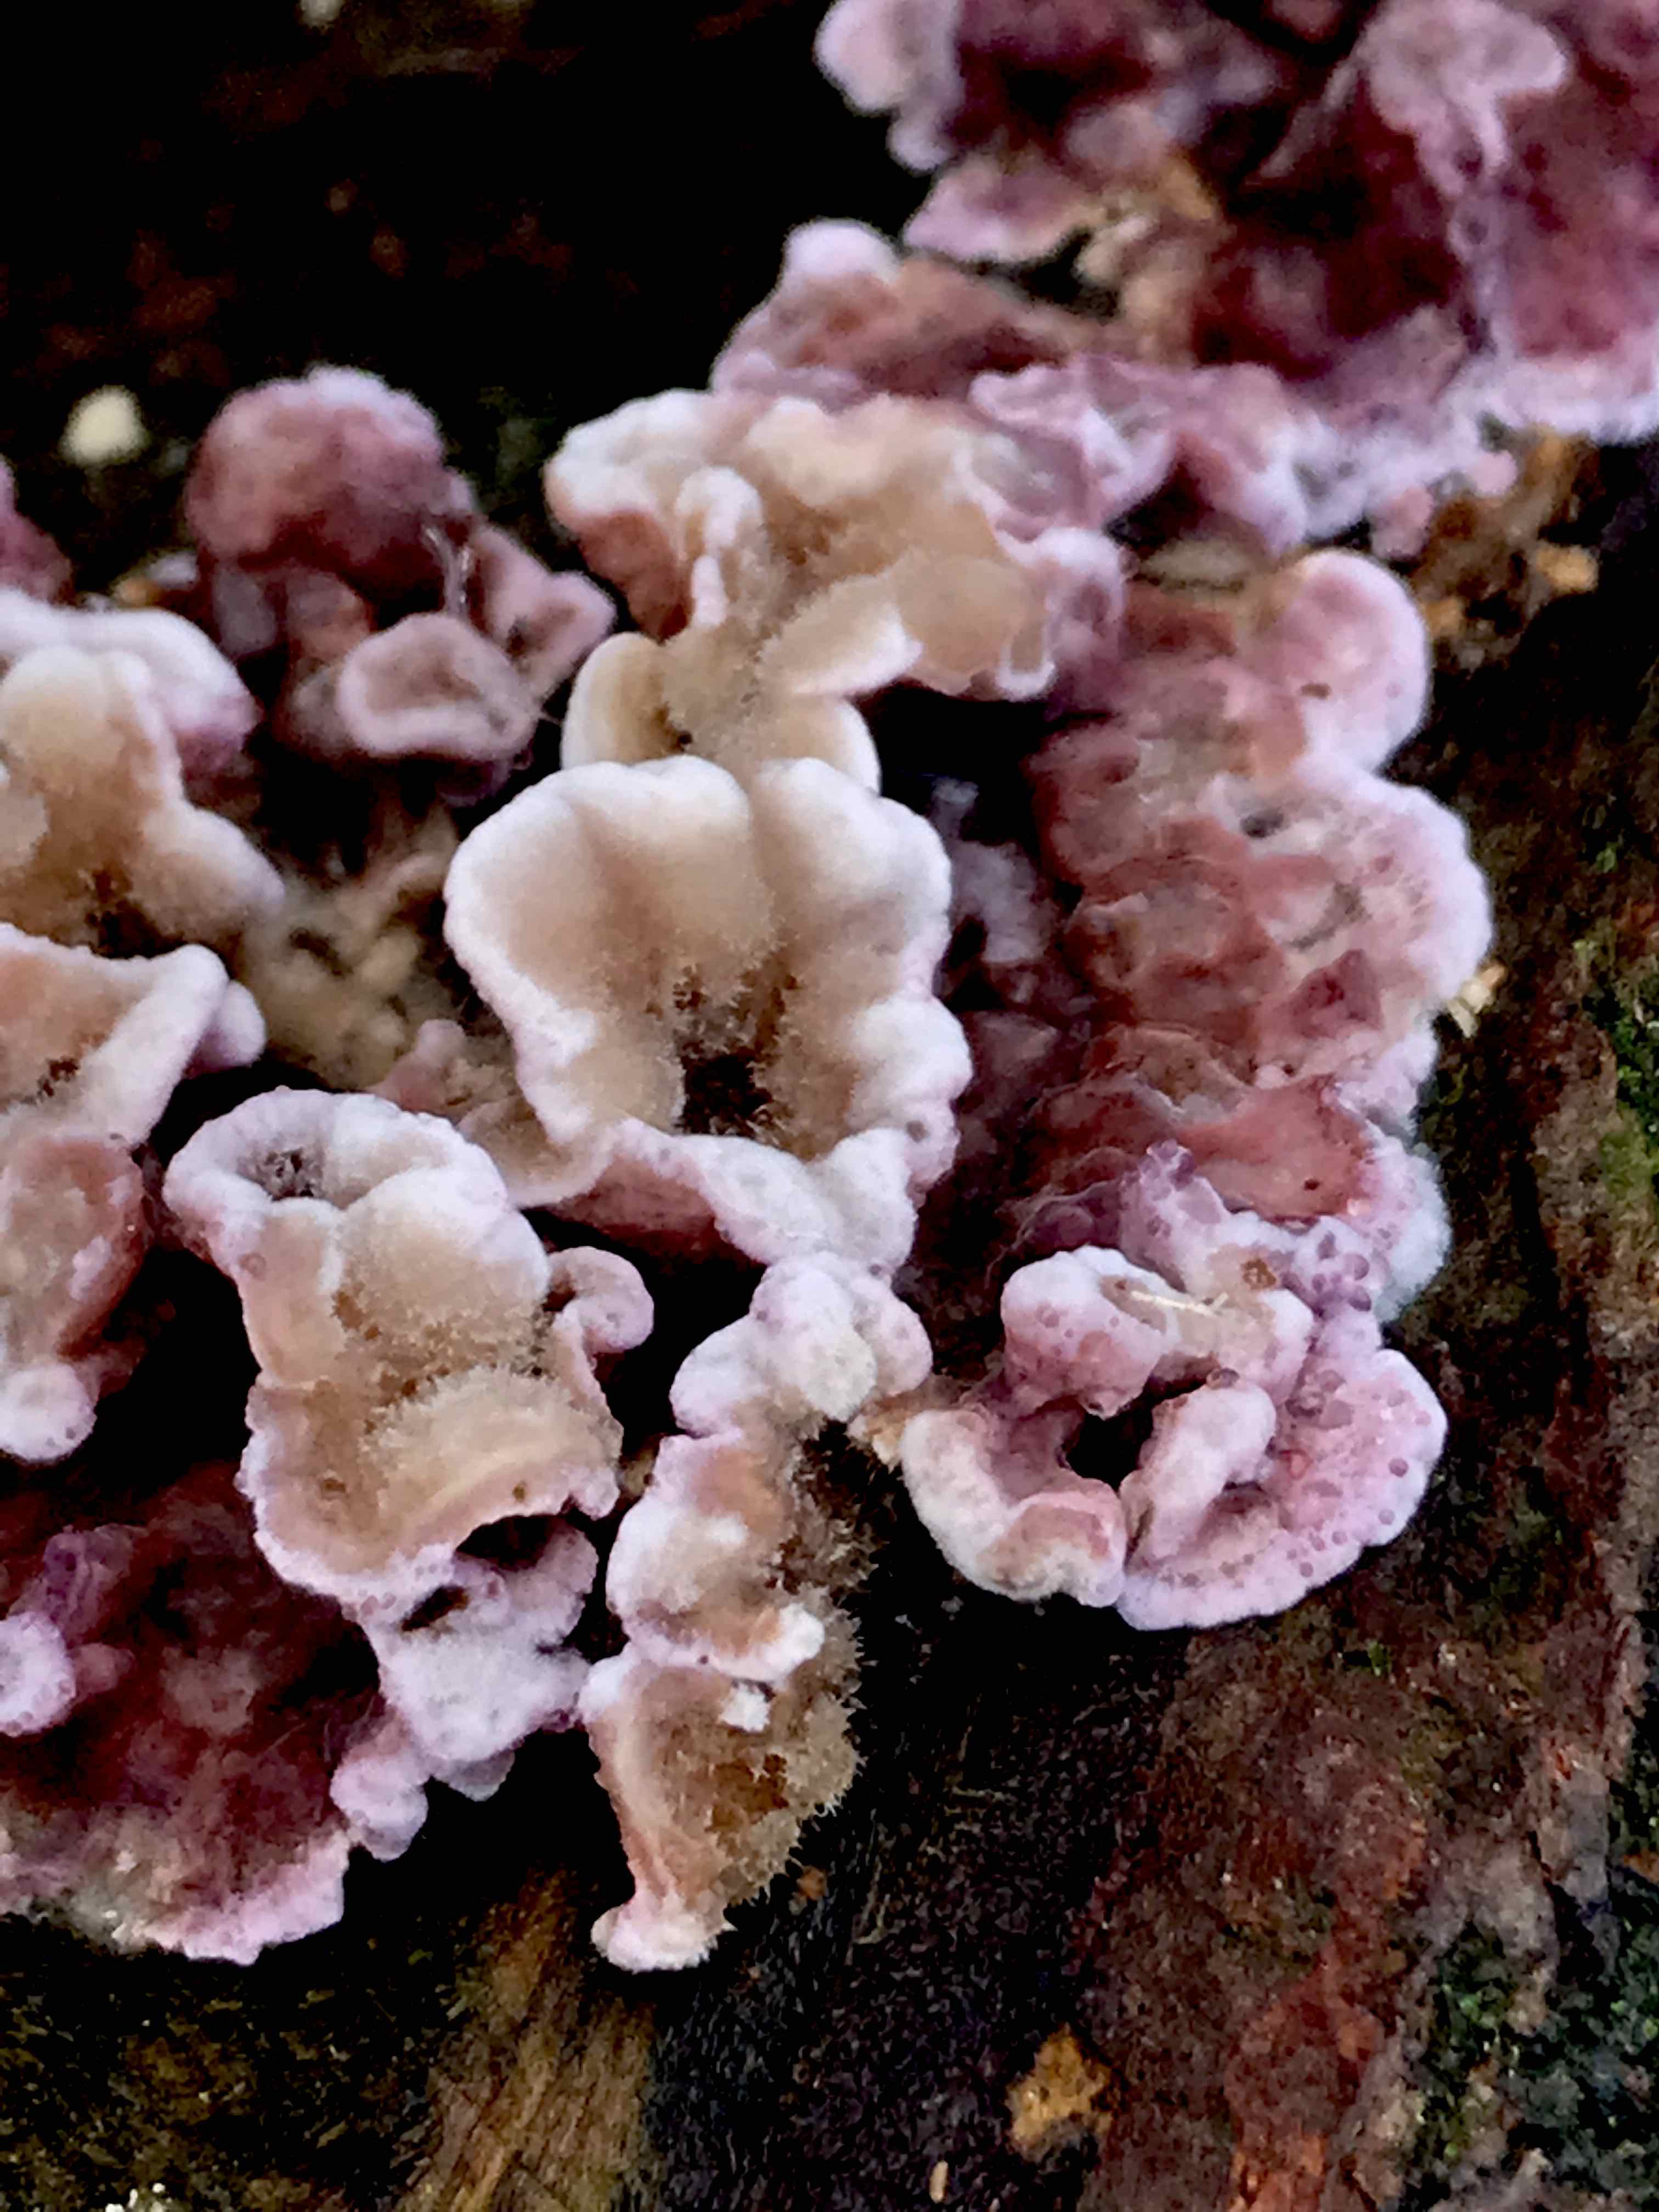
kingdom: Fungi
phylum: Basidiomycota
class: Agaricomycetes
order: Agaricales
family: Cyphellaceae
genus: Chondrostereum
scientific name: Chondrostereum purpureum
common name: purpurlædersvamp
